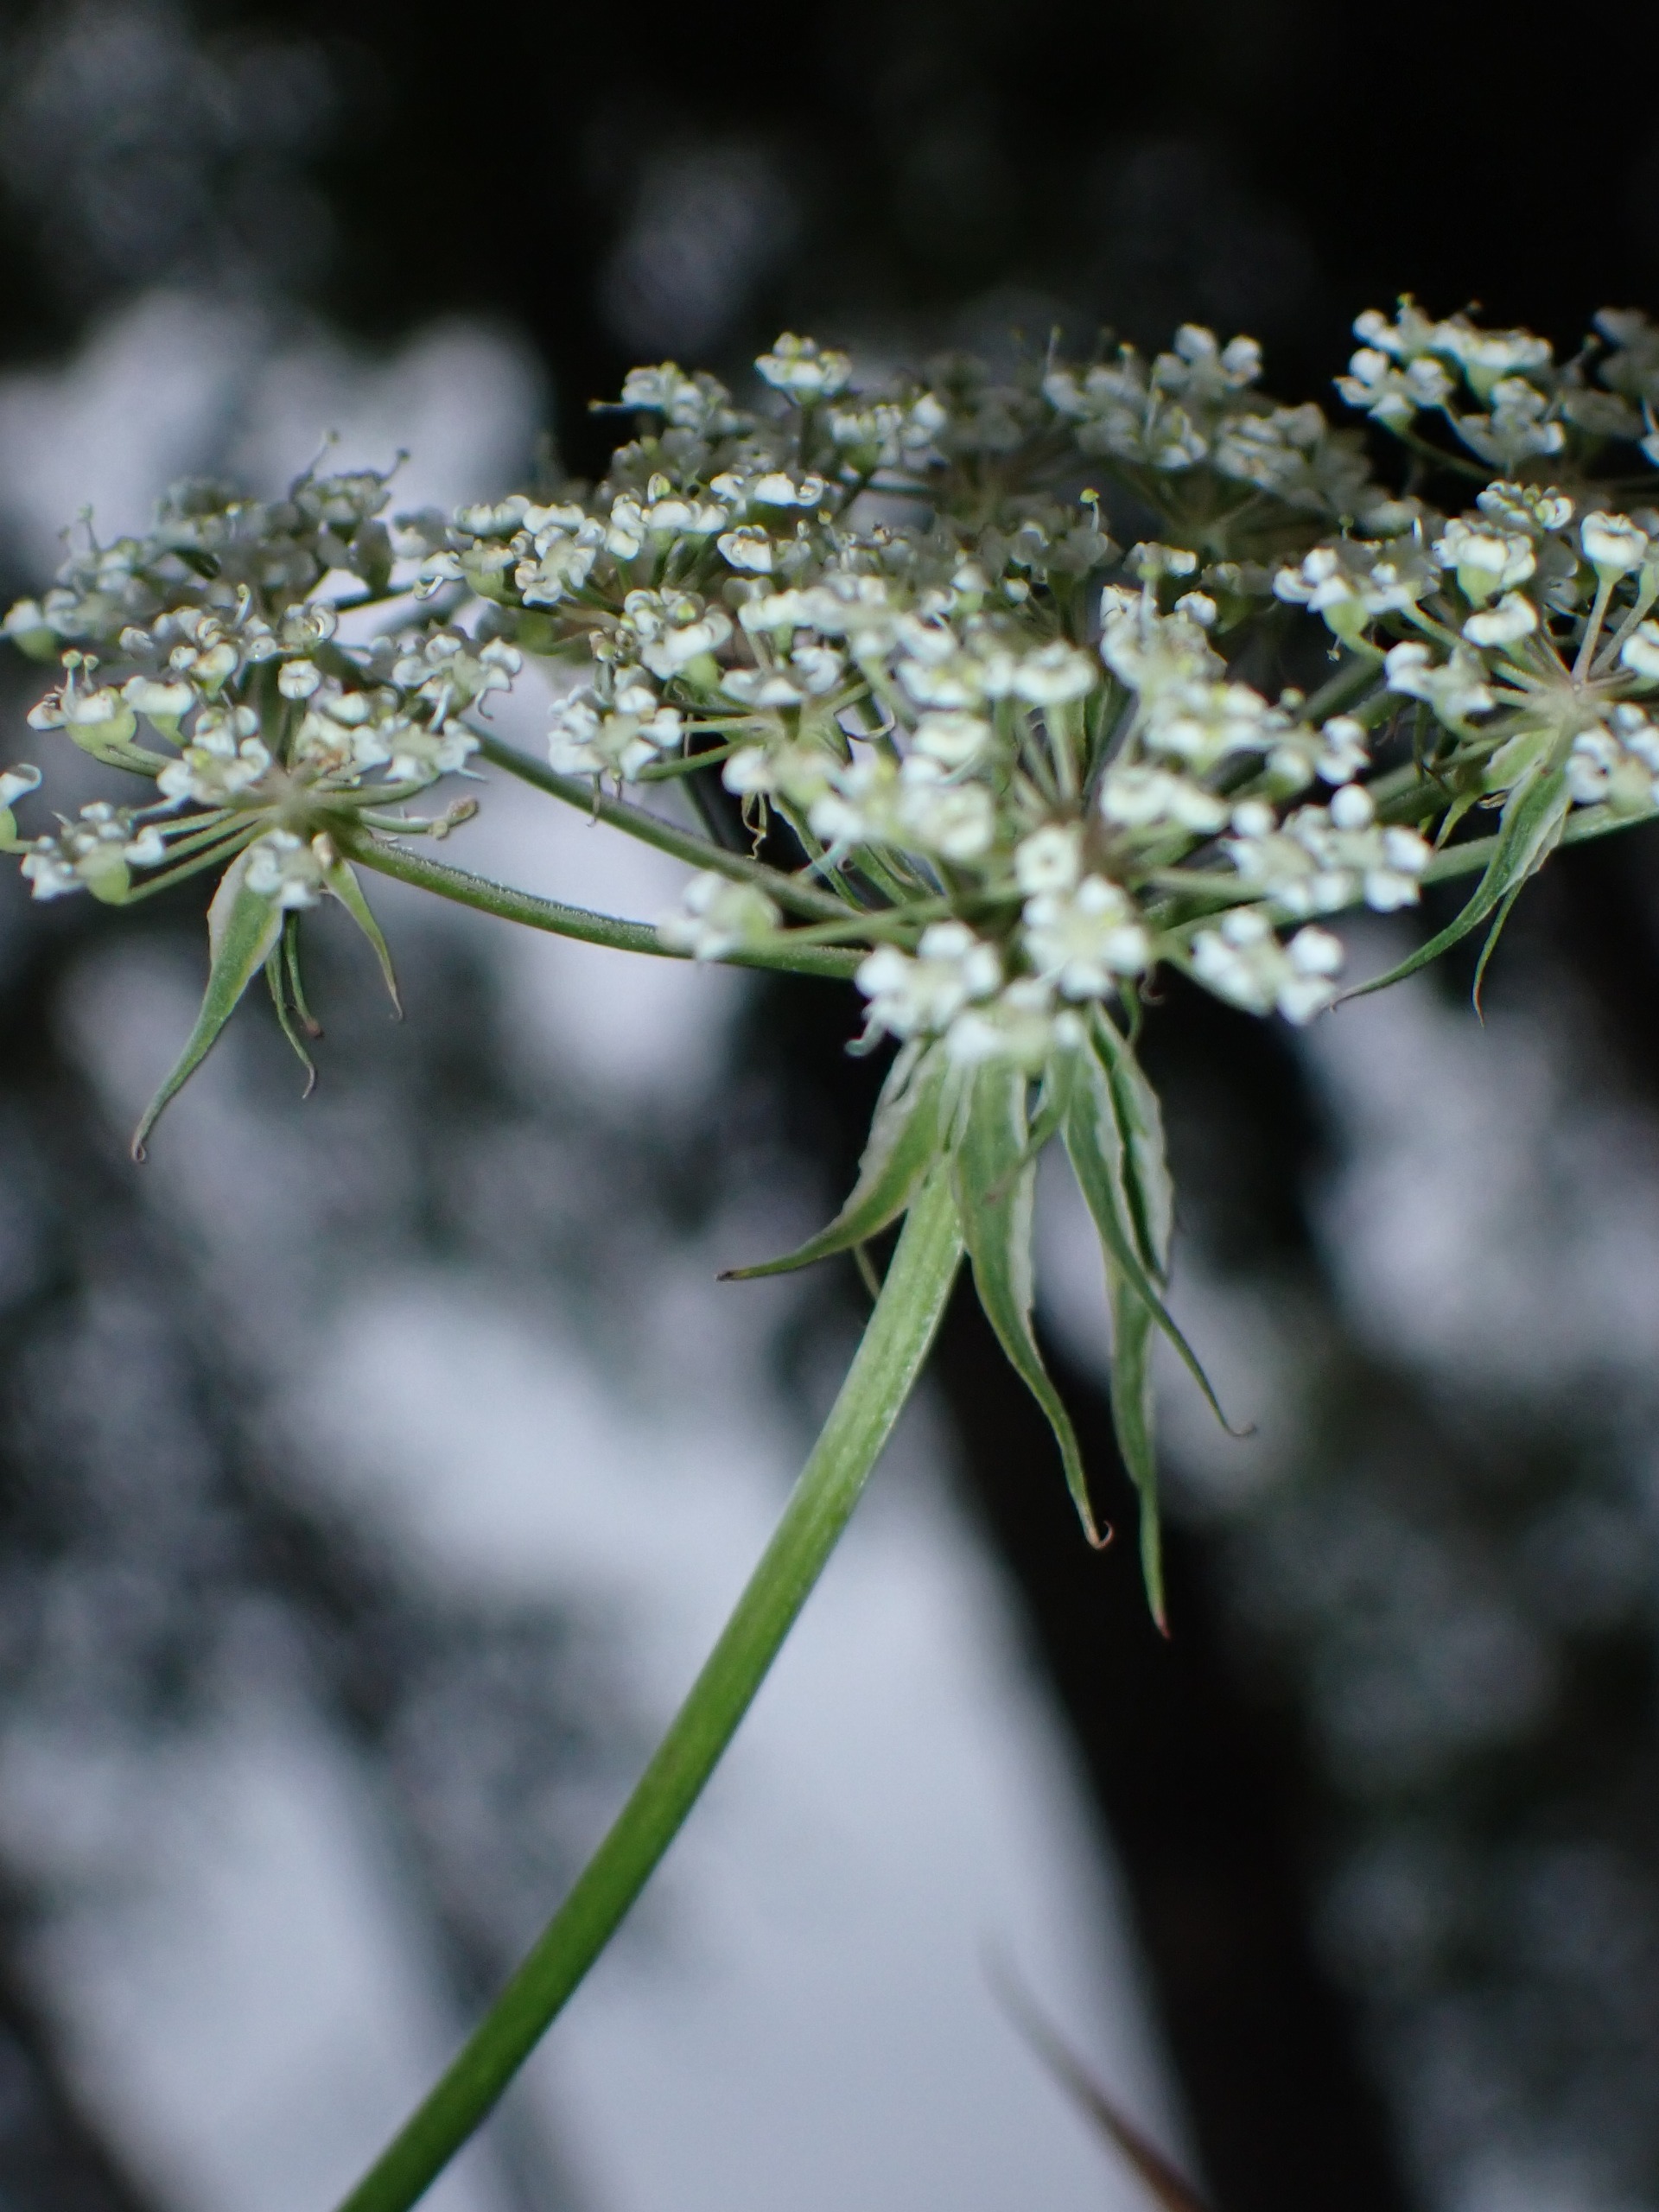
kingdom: Plantae
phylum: Tracheophyta
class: Magnoliopsida
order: Apiales
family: Apiaceae
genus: Thysselinum
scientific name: Thysselinum palustre
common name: Kær-svovlrod
